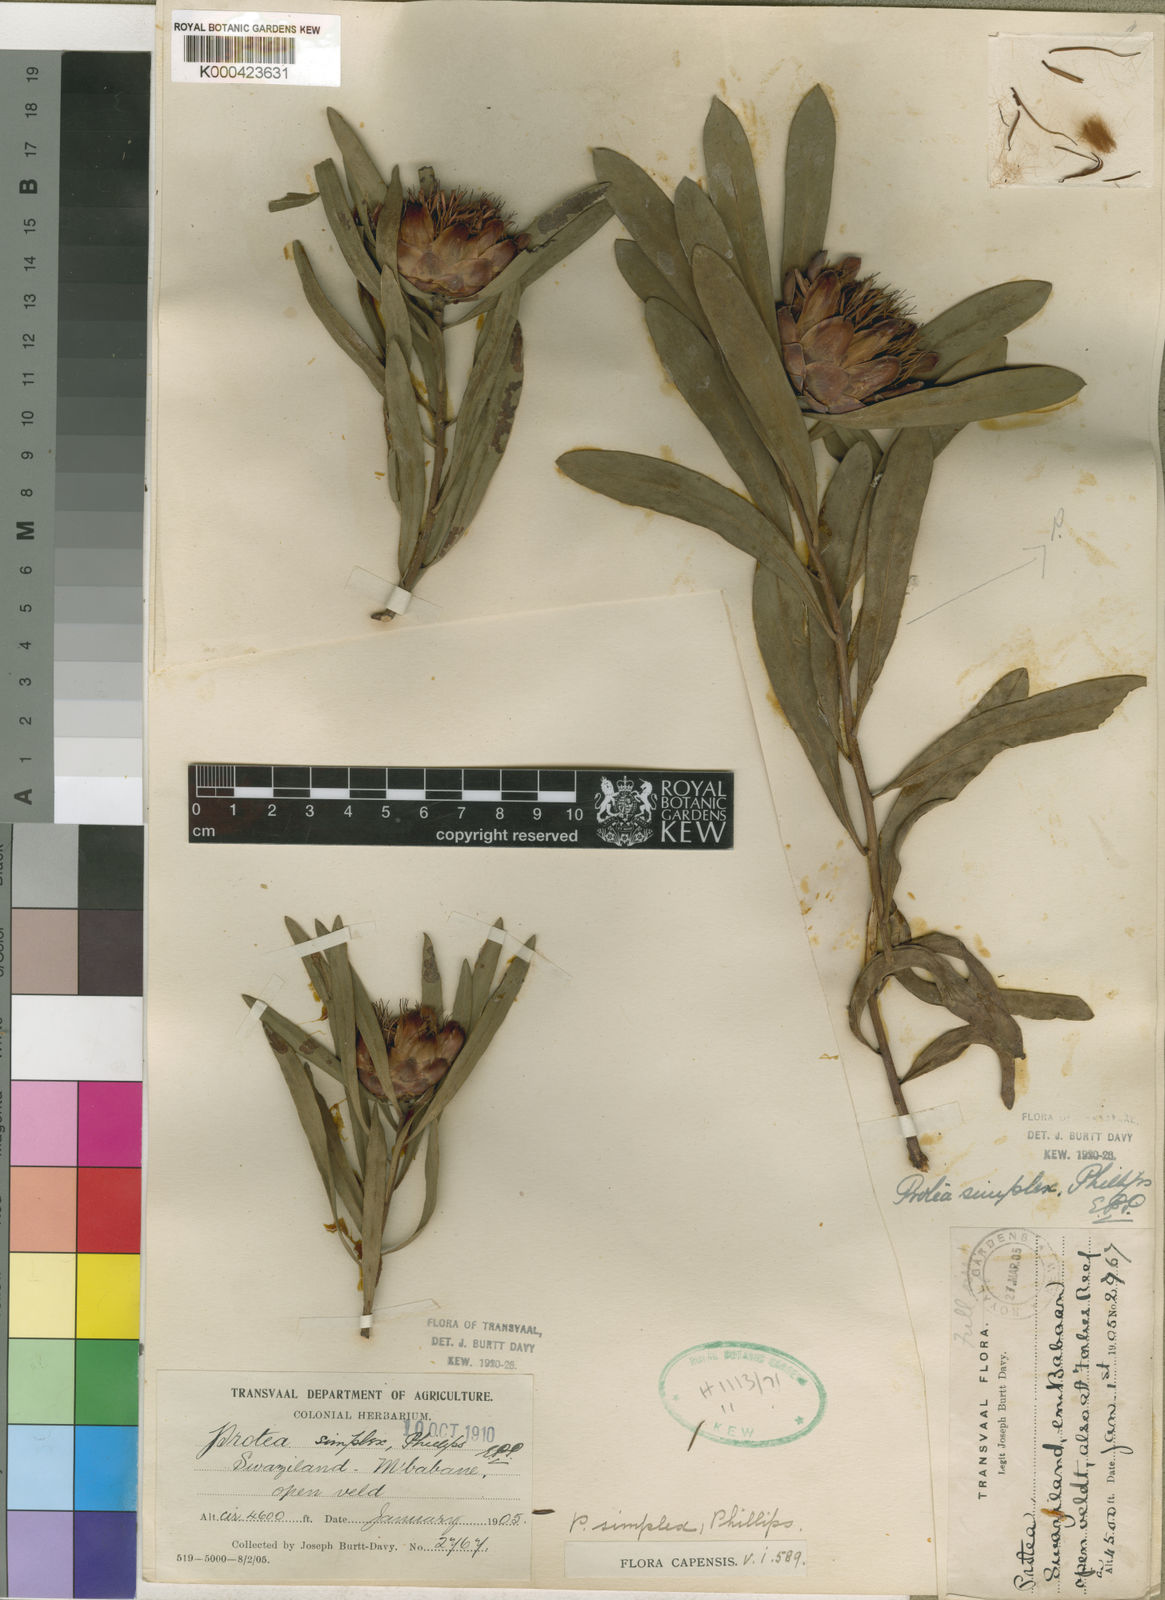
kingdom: Plantae
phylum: Tracheophyta
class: Magnoliopsida
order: Proteales
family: Proteaceae
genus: Protea
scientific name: Protea simplex
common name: Dwarf grassveld sugarbush
